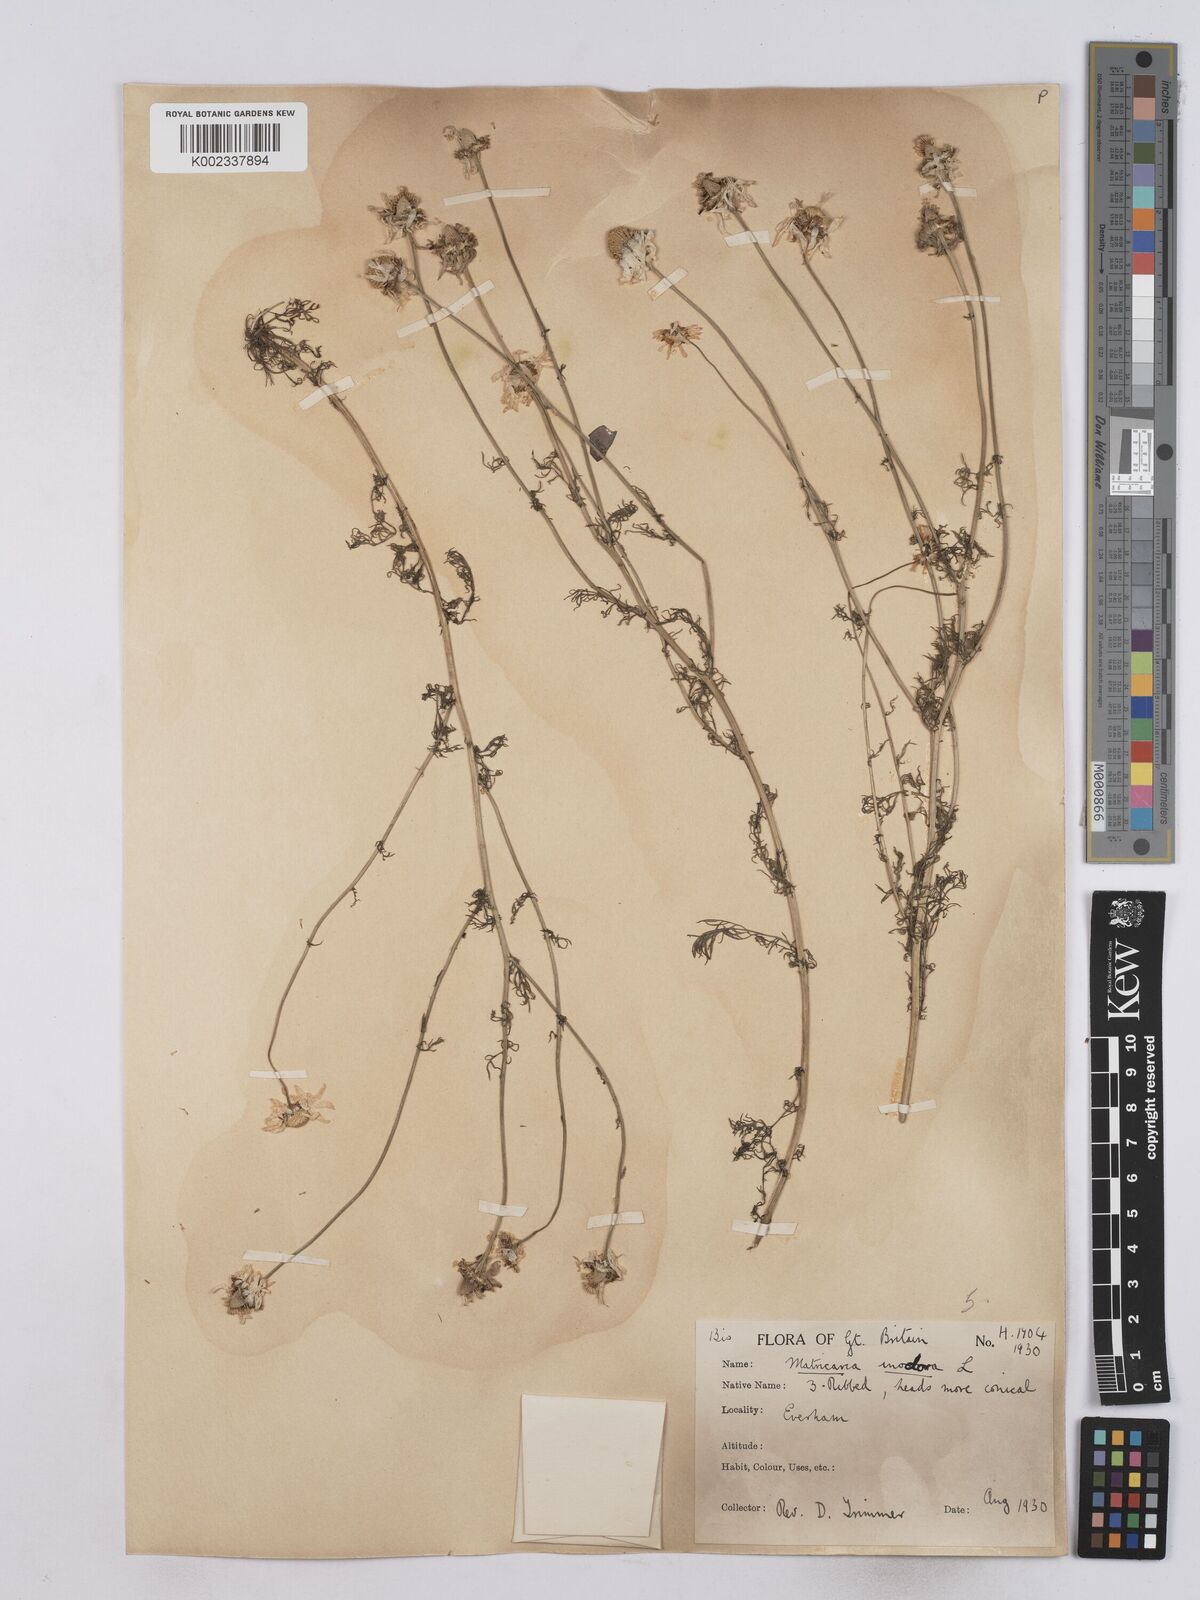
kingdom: Plantae
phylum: Tracheophyta
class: Magnoliopsida
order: Asterales
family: Asteraceae
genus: Matricaria
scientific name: Matricaria discoidea
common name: Disc mayweed
